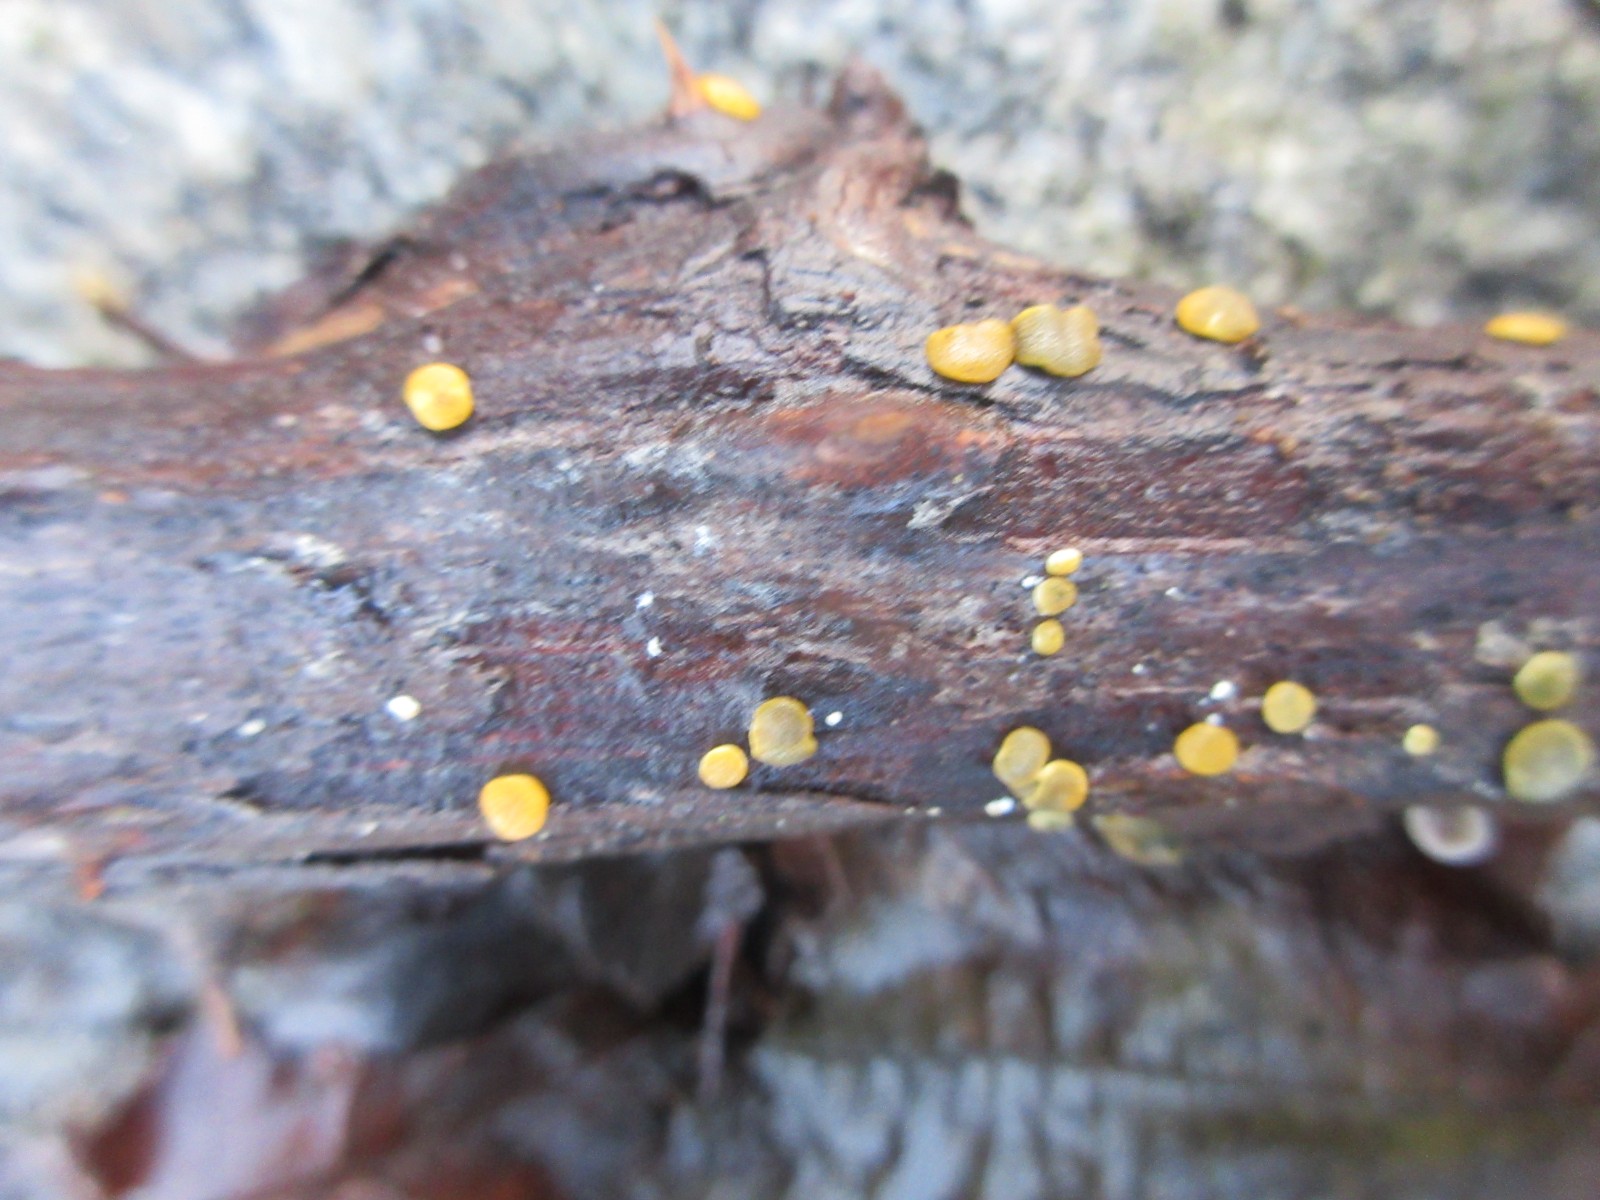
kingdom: Fungi
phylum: Ascomycota
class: Sordariomycetes
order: Hypocreales
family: Hypocreaceae
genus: Trichoderma
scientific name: Trichoderma aureoviride
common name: æggegul kødkerne
